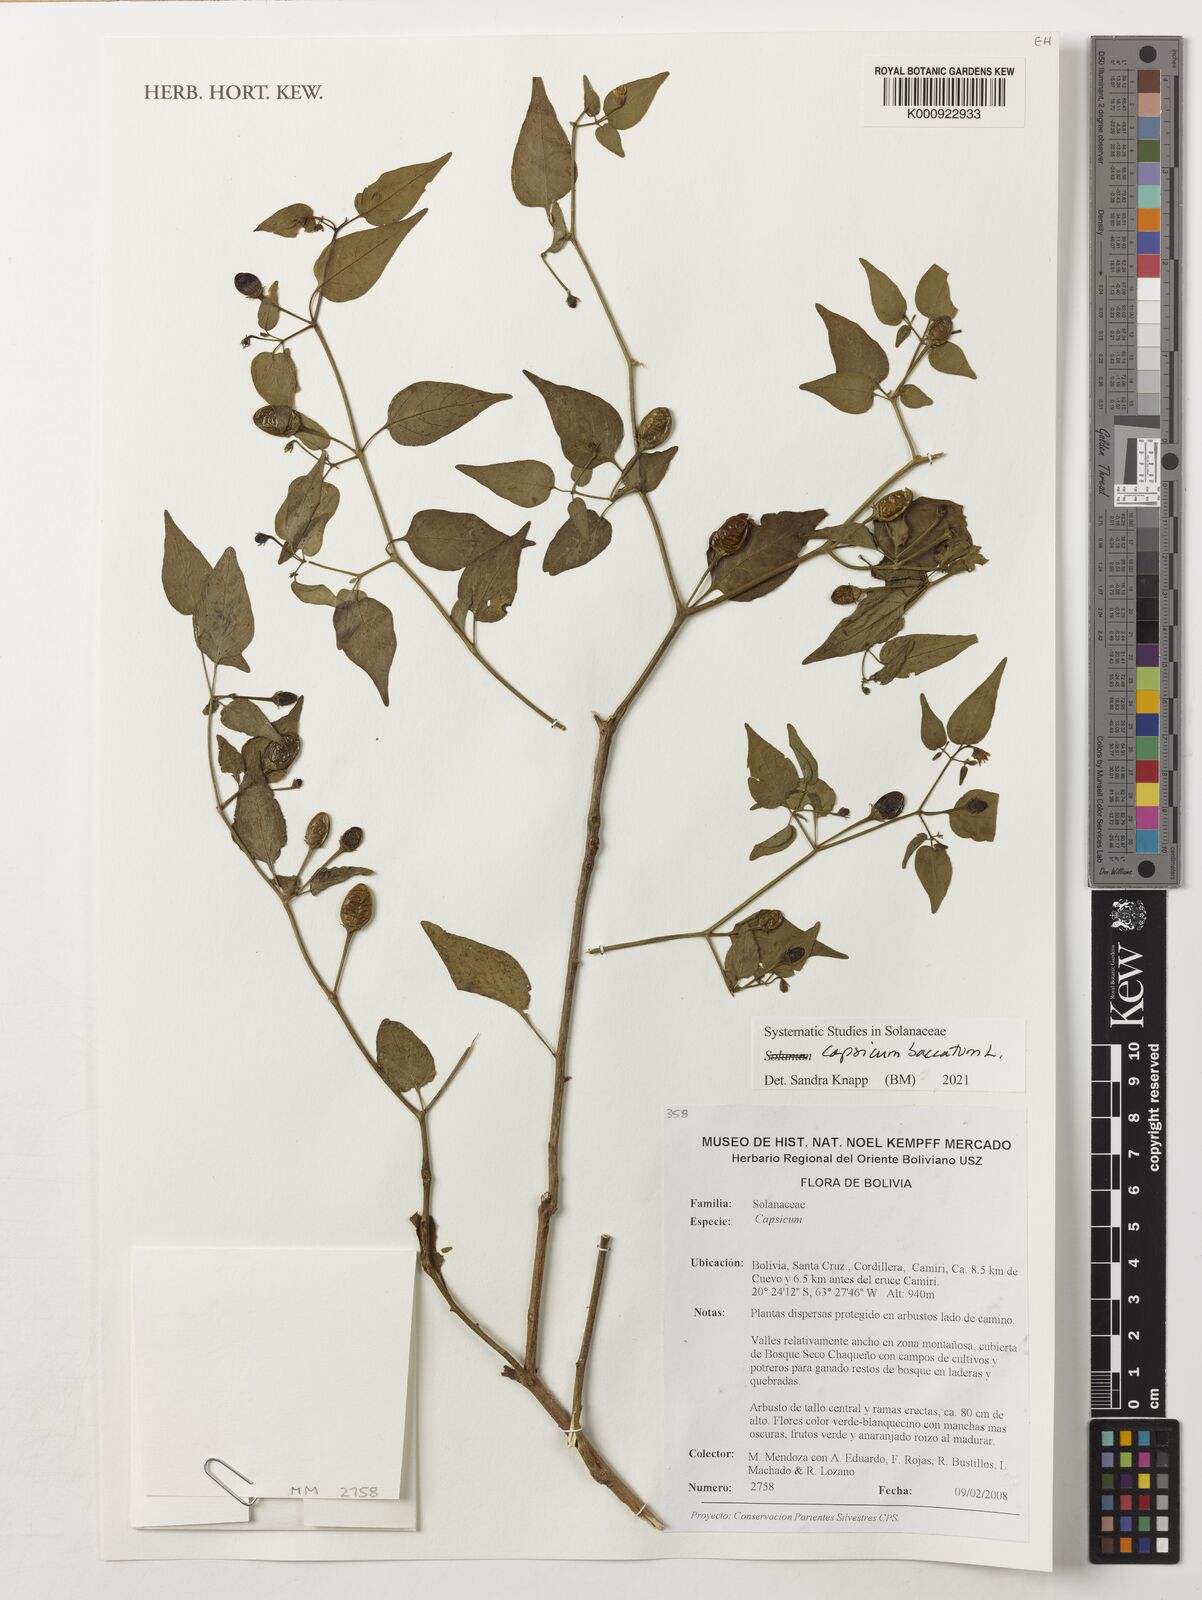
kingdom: Plantae
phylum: Tracheophyta
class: Magnoliopsida
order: Solanales
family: Solanaceae
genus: Capsicum
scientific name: Capsicum baccatum
